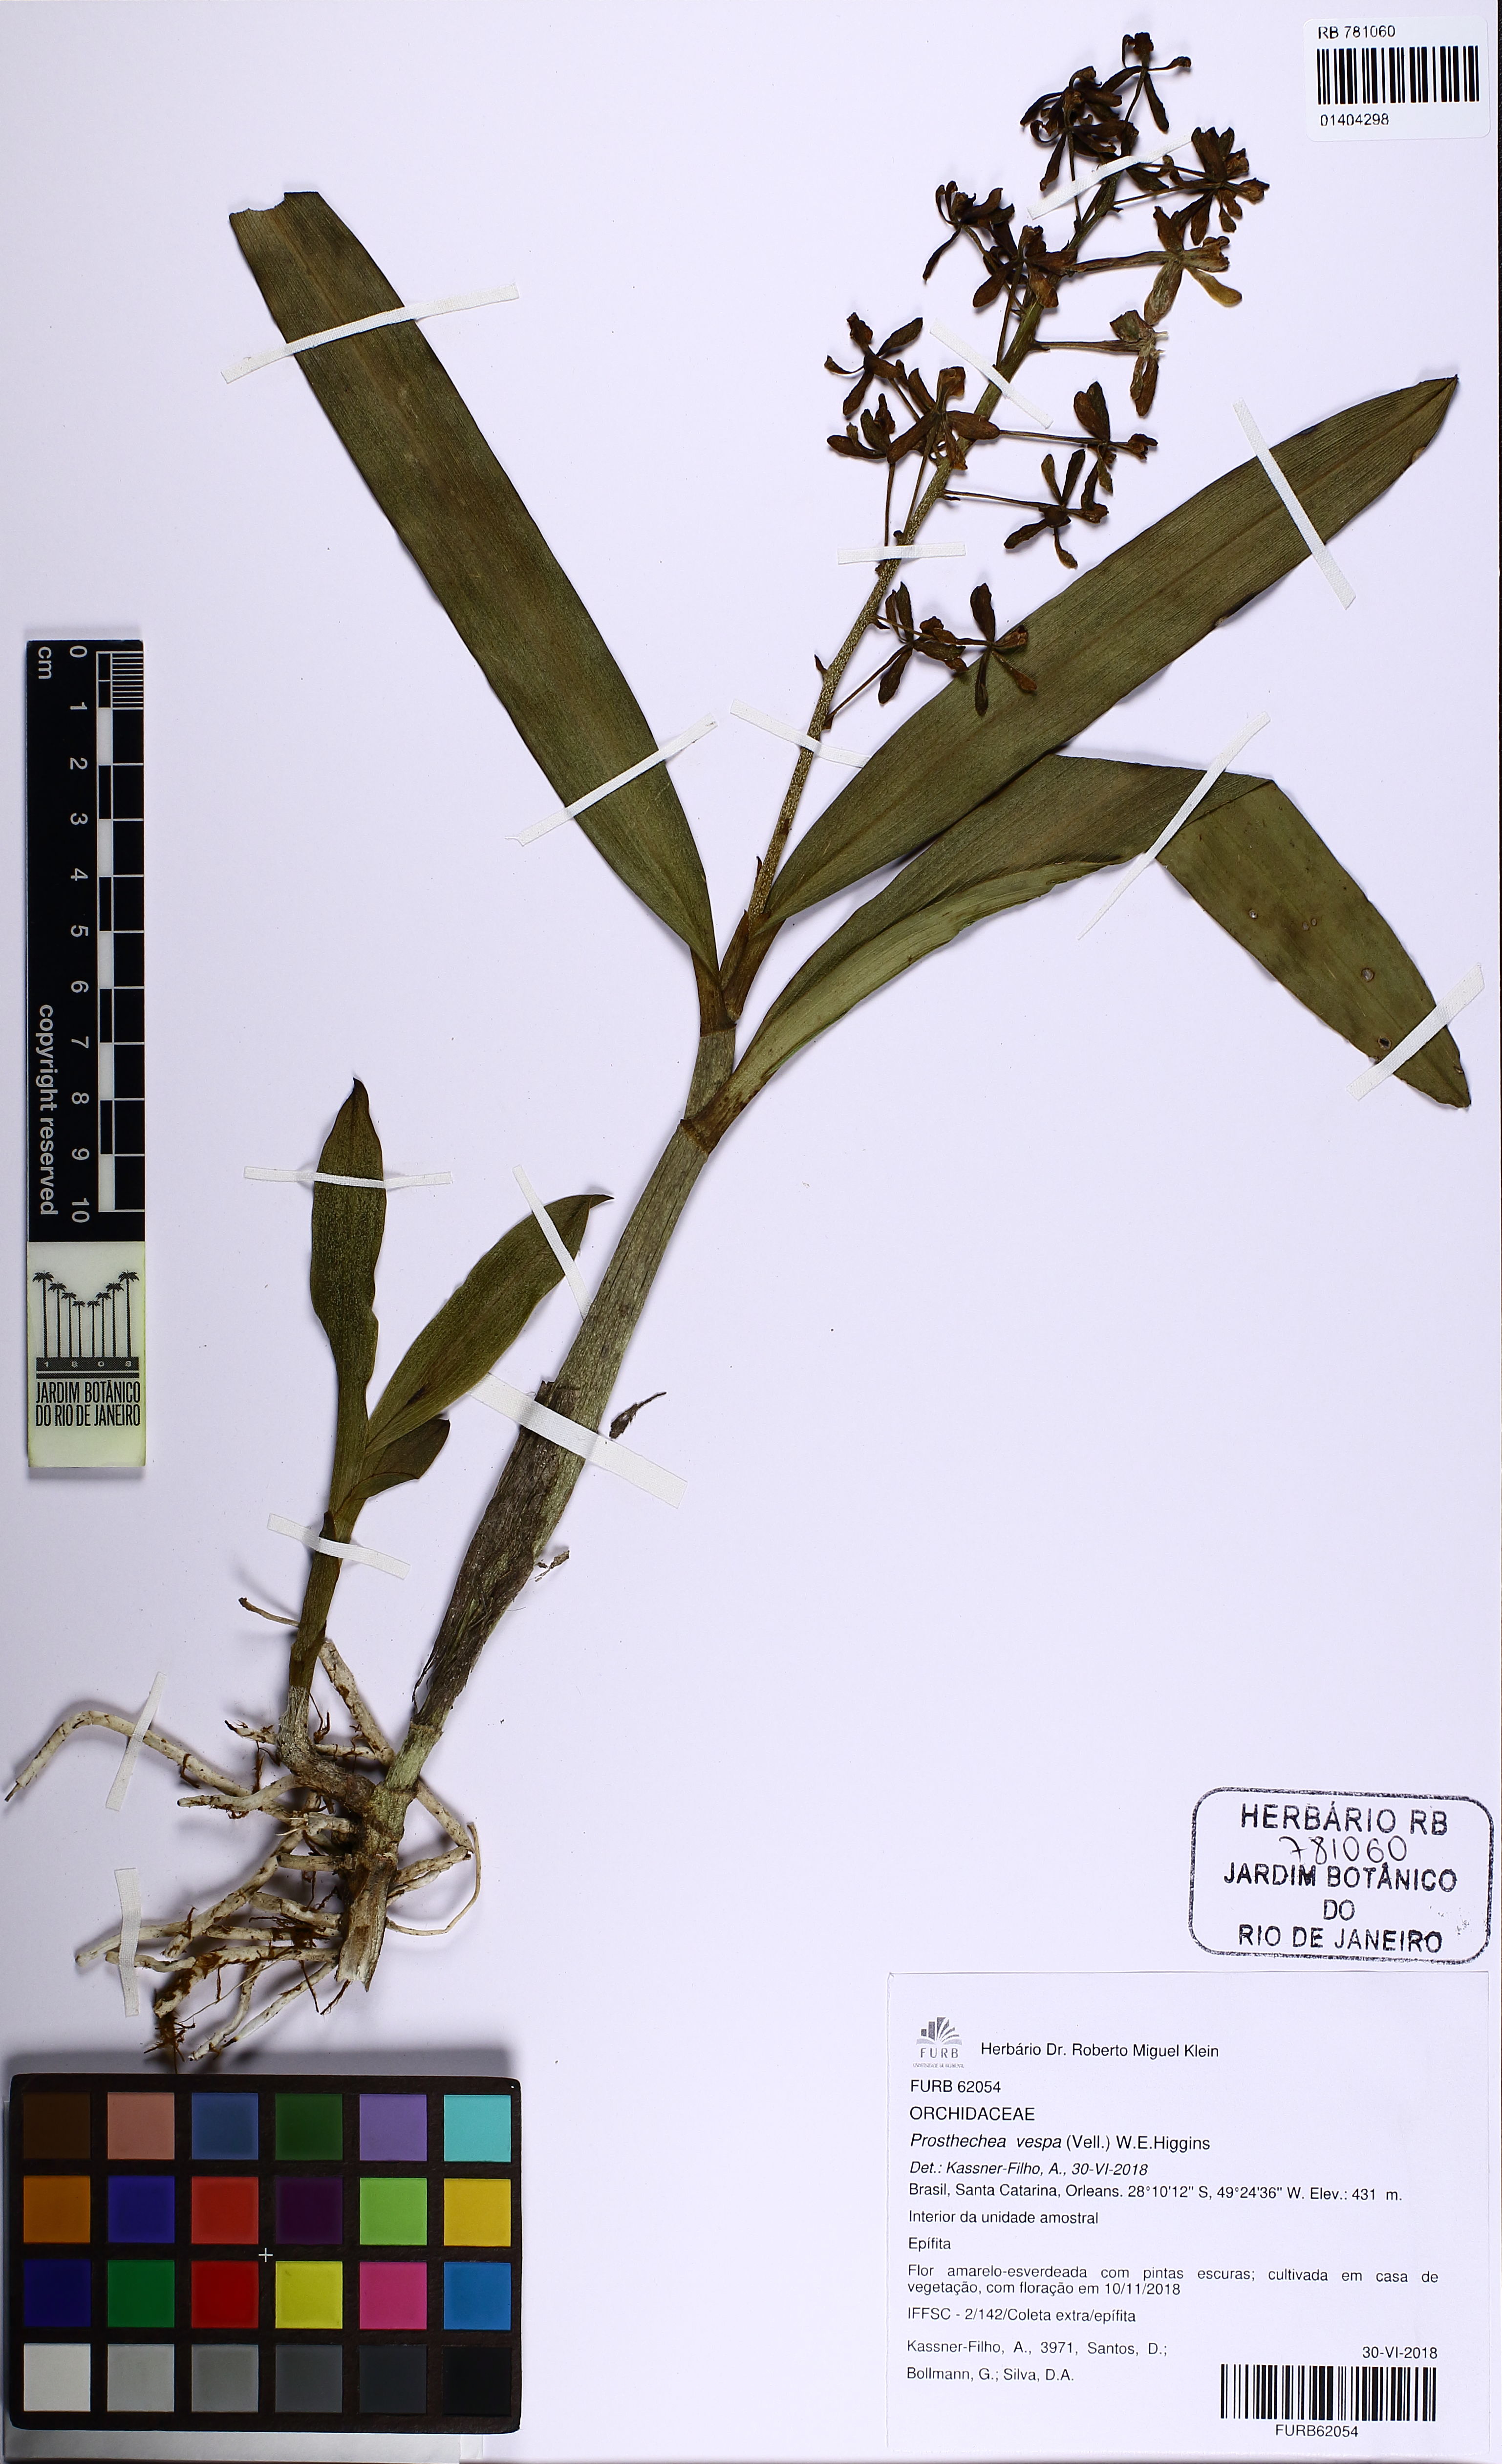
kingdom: Plantae
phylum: Tracheophyta
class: Liliopsida
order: Asparagales
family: Orchidaceae
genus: Prosthechea
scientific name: Prosthechea pachysepala
